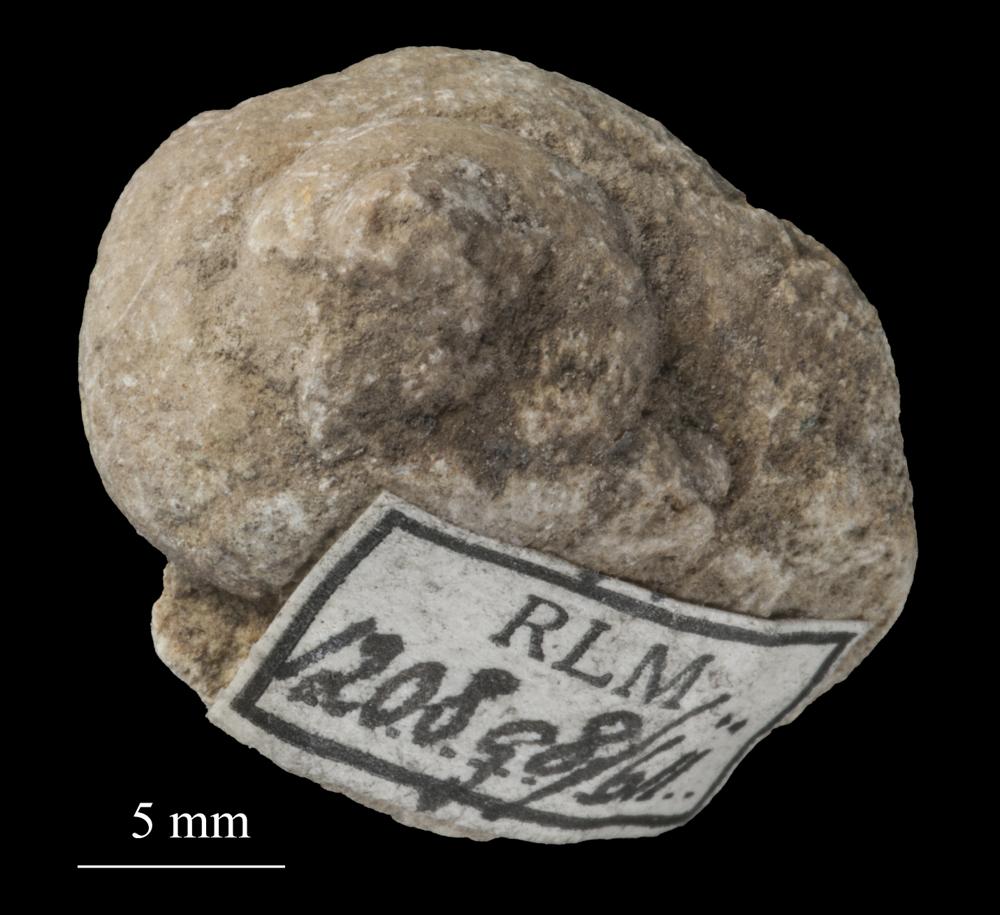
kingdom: Animalia
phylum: Mollusca
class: Gastropoda
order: Pleurotomariida
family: Pleurotomariidae
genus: Pleurotomaria
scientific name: Pleurotomaria
